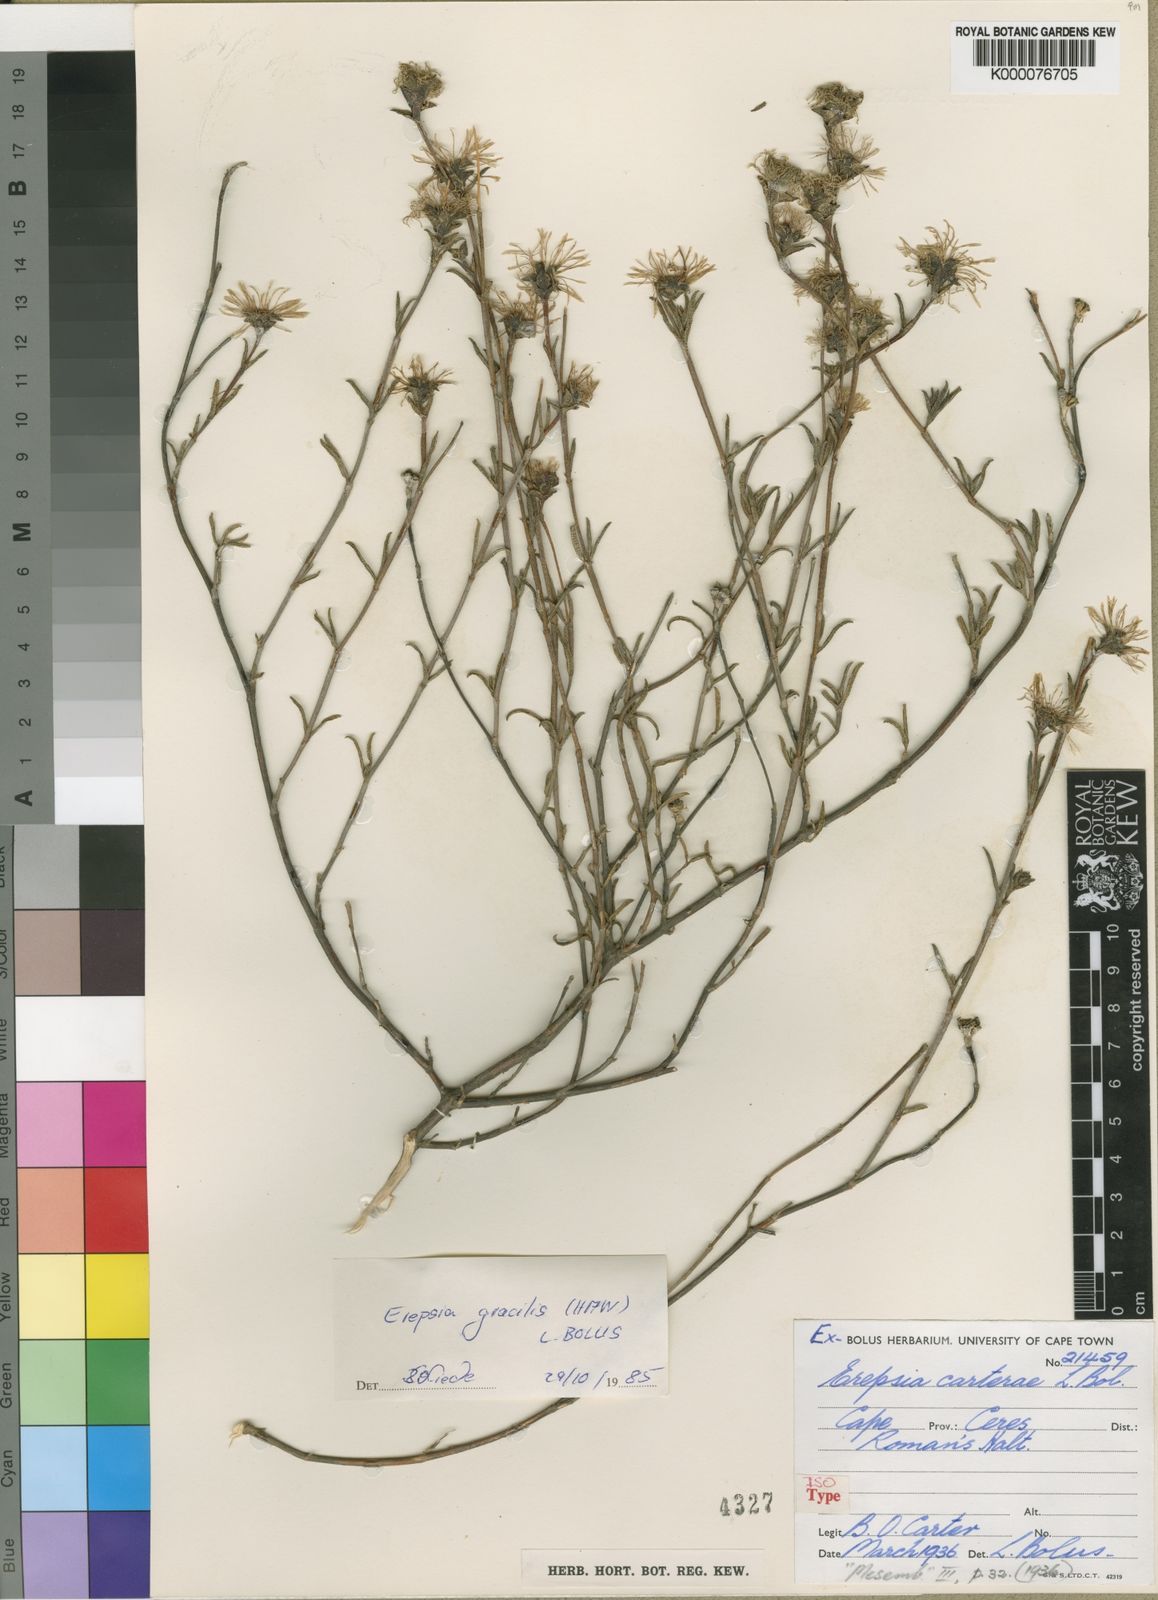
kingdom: Plantae
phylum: Tracheophyta
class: Magnoliopsida
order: Caryophyllales
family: Aizoaceae
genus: Erepsia
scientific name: Erepsia gracilis
